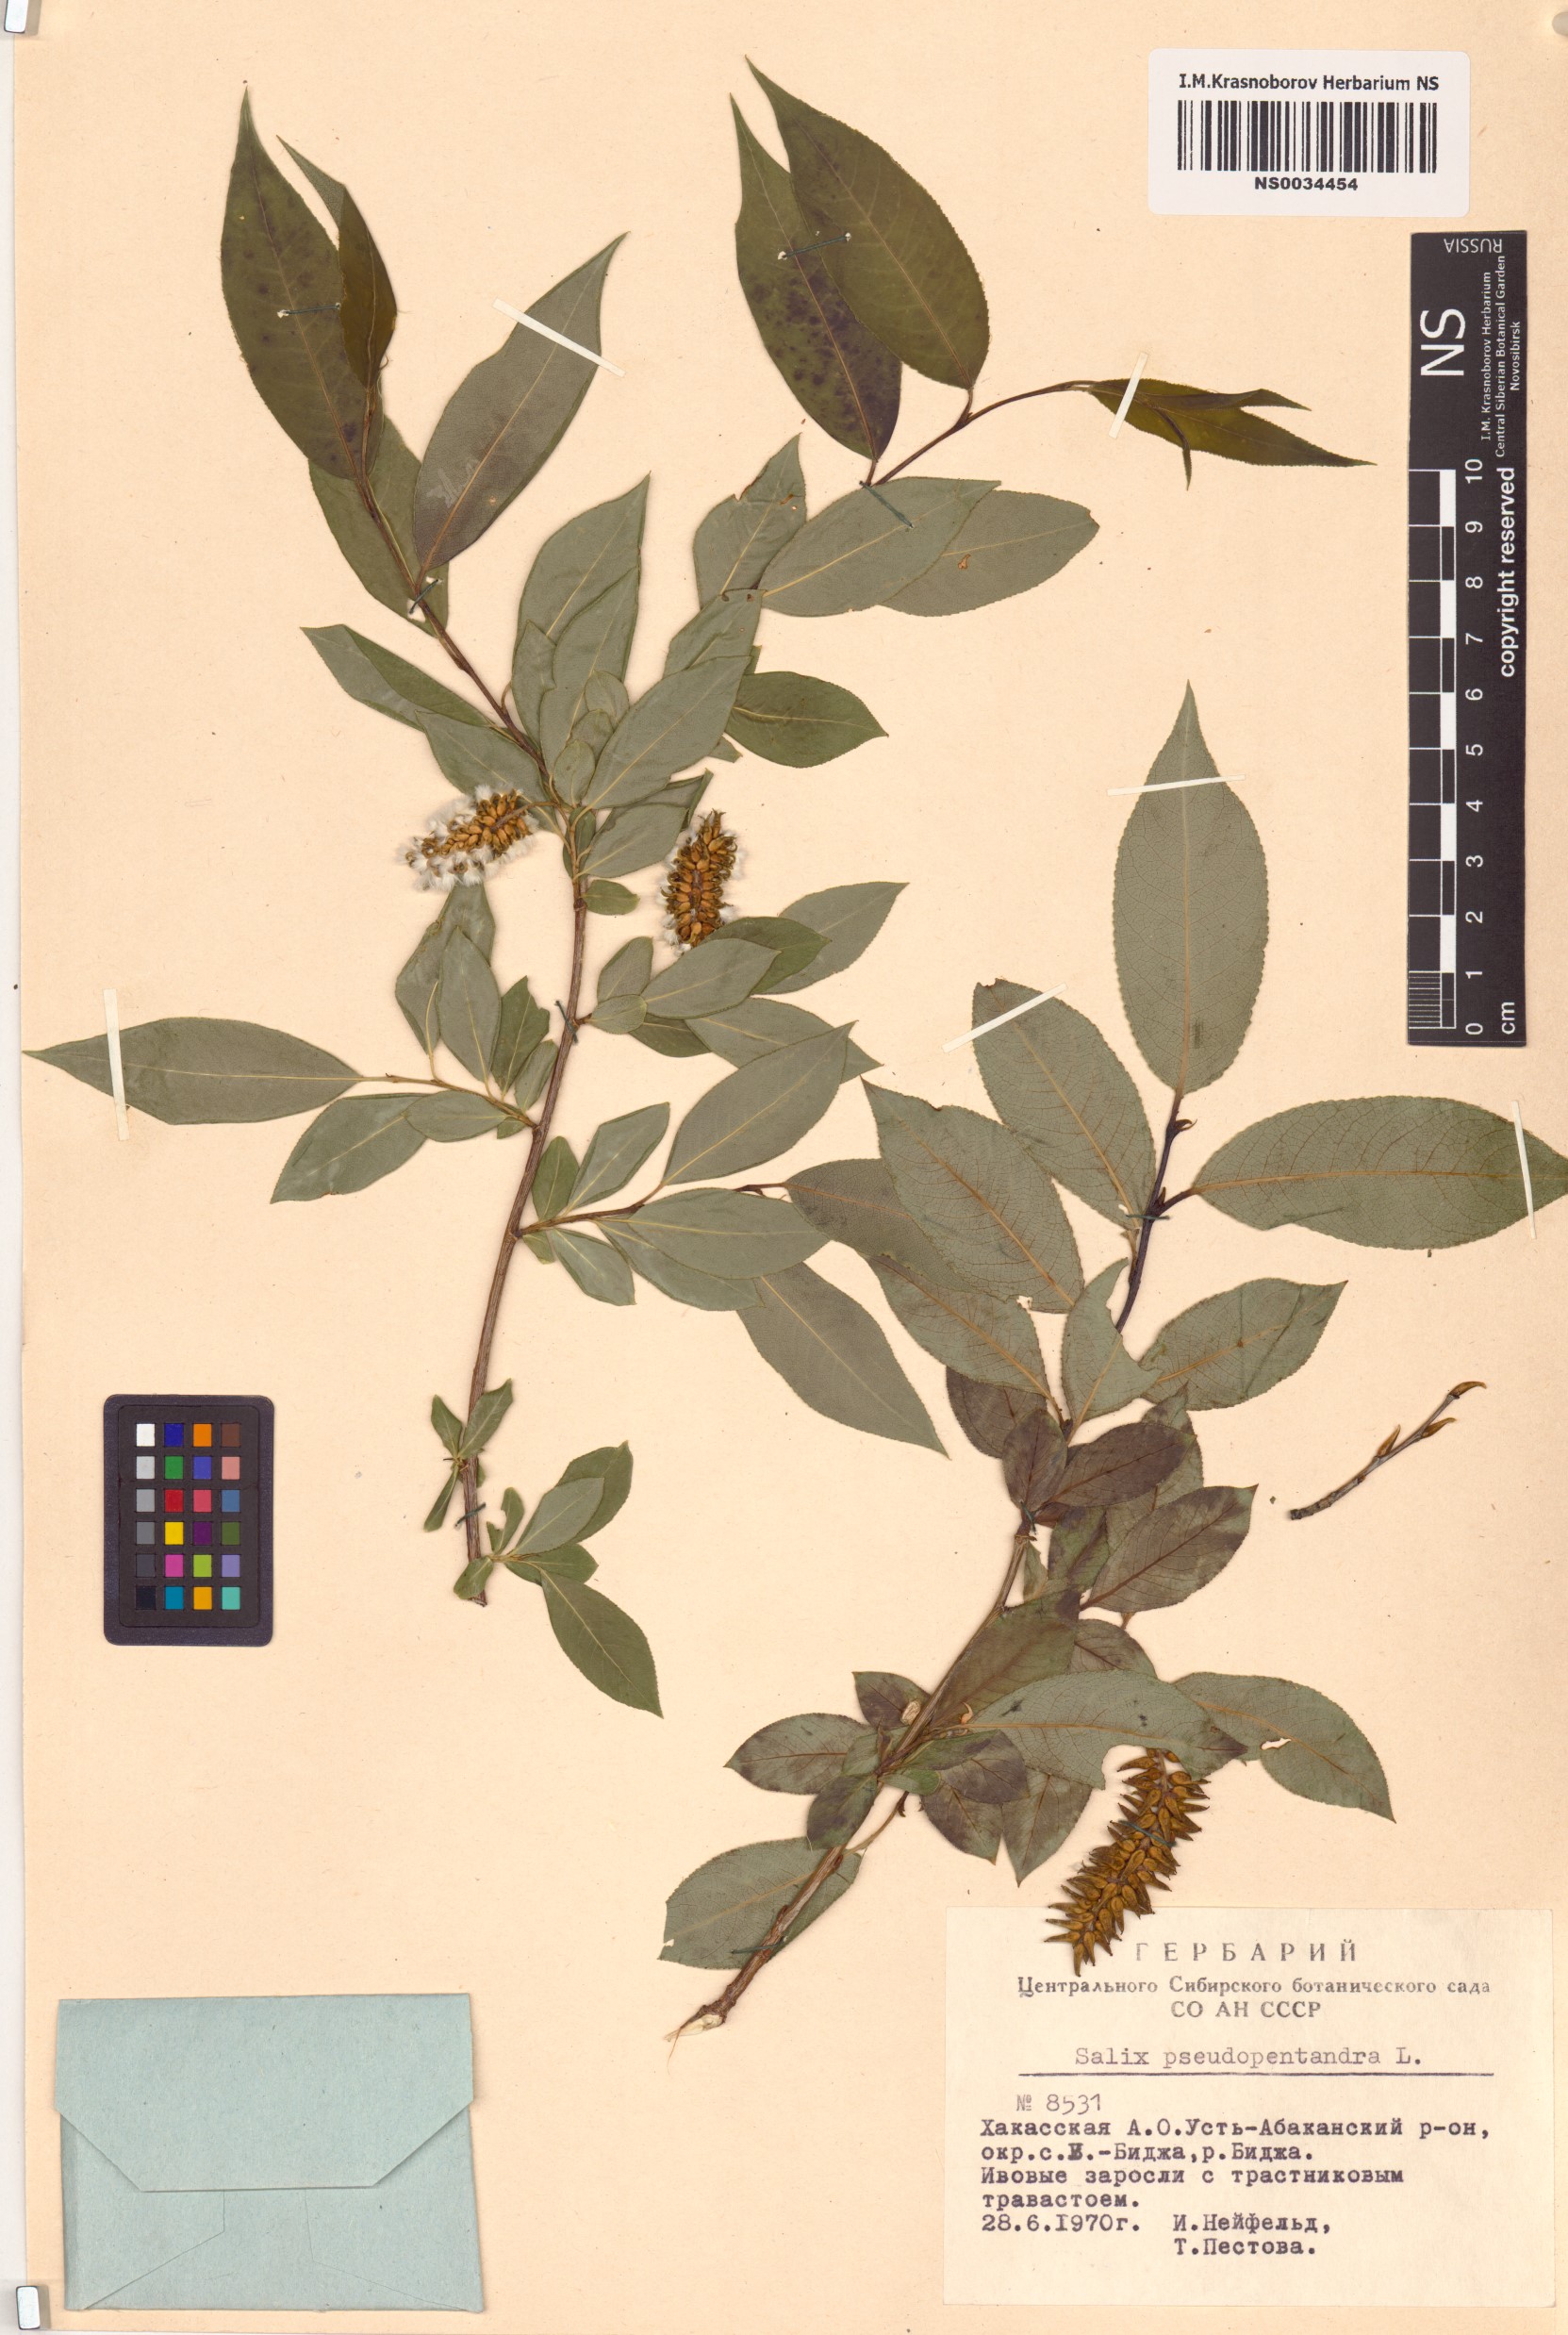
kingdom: Plantae
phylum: Tracheophyta
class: Magnoliopsida
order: Malpighiales
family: Salicaceae
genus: Salix
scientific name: Salix pseudopentandra
